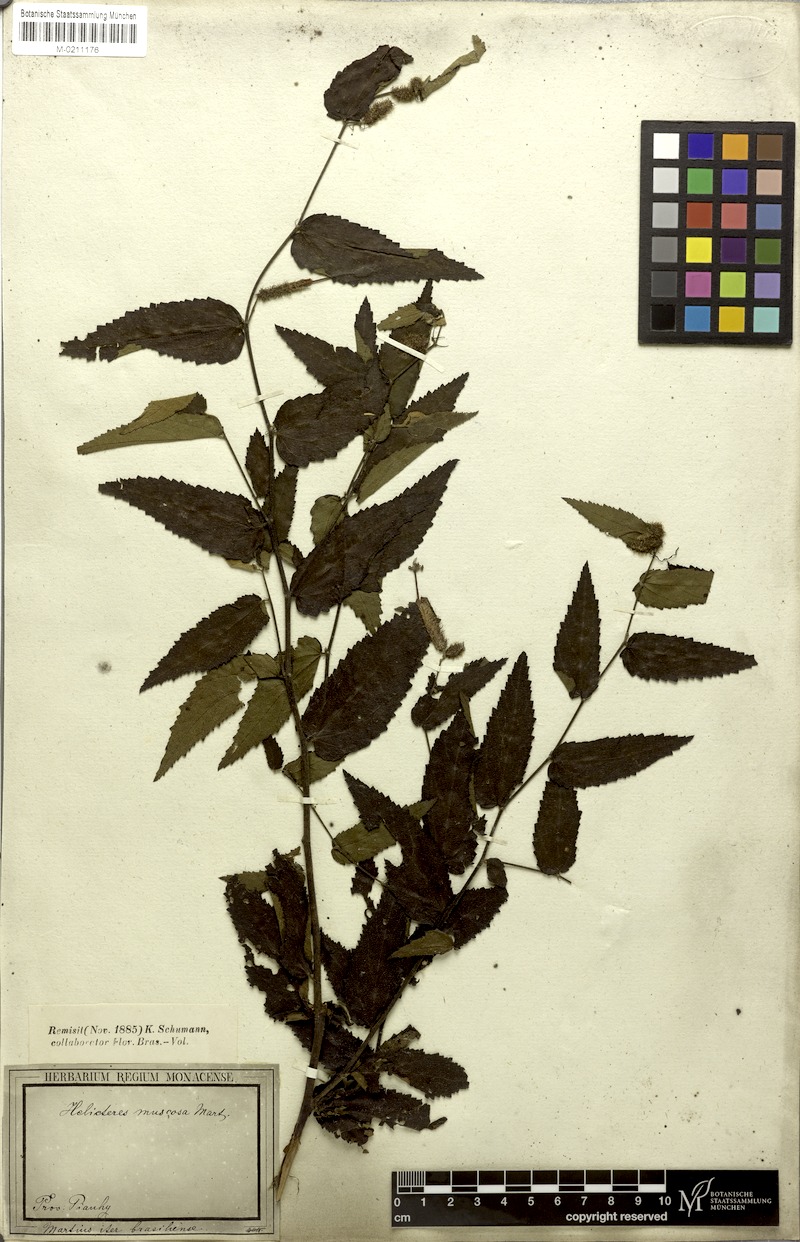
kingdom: Plantae
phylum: Tracheophyta
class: Magnoliopsida
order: Malvales
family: Malvaceae
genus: Helicteres
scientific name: Helicteres muscosa
